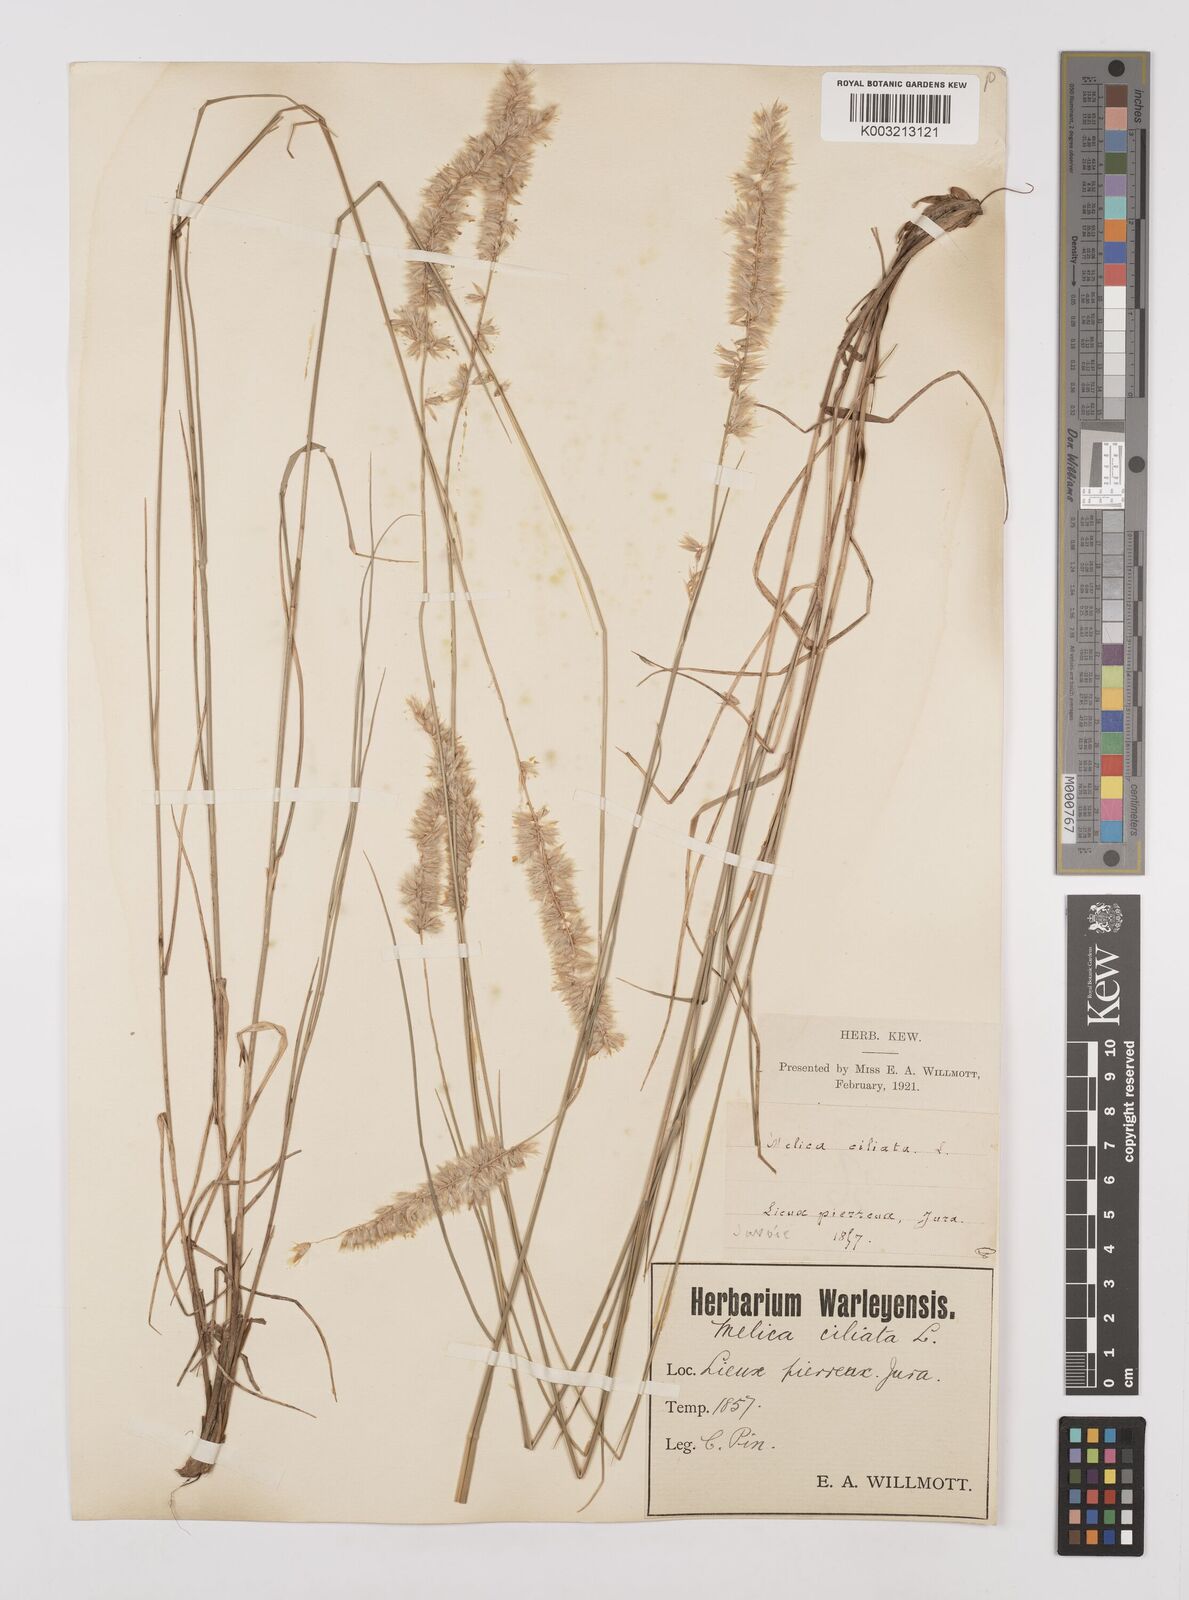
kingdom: Plantae
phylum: Tracheophyta
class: Liliopsida
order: Poales
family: Poaceae
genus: Melica
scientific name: Melica ciliata
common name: Hairy melicgrass
